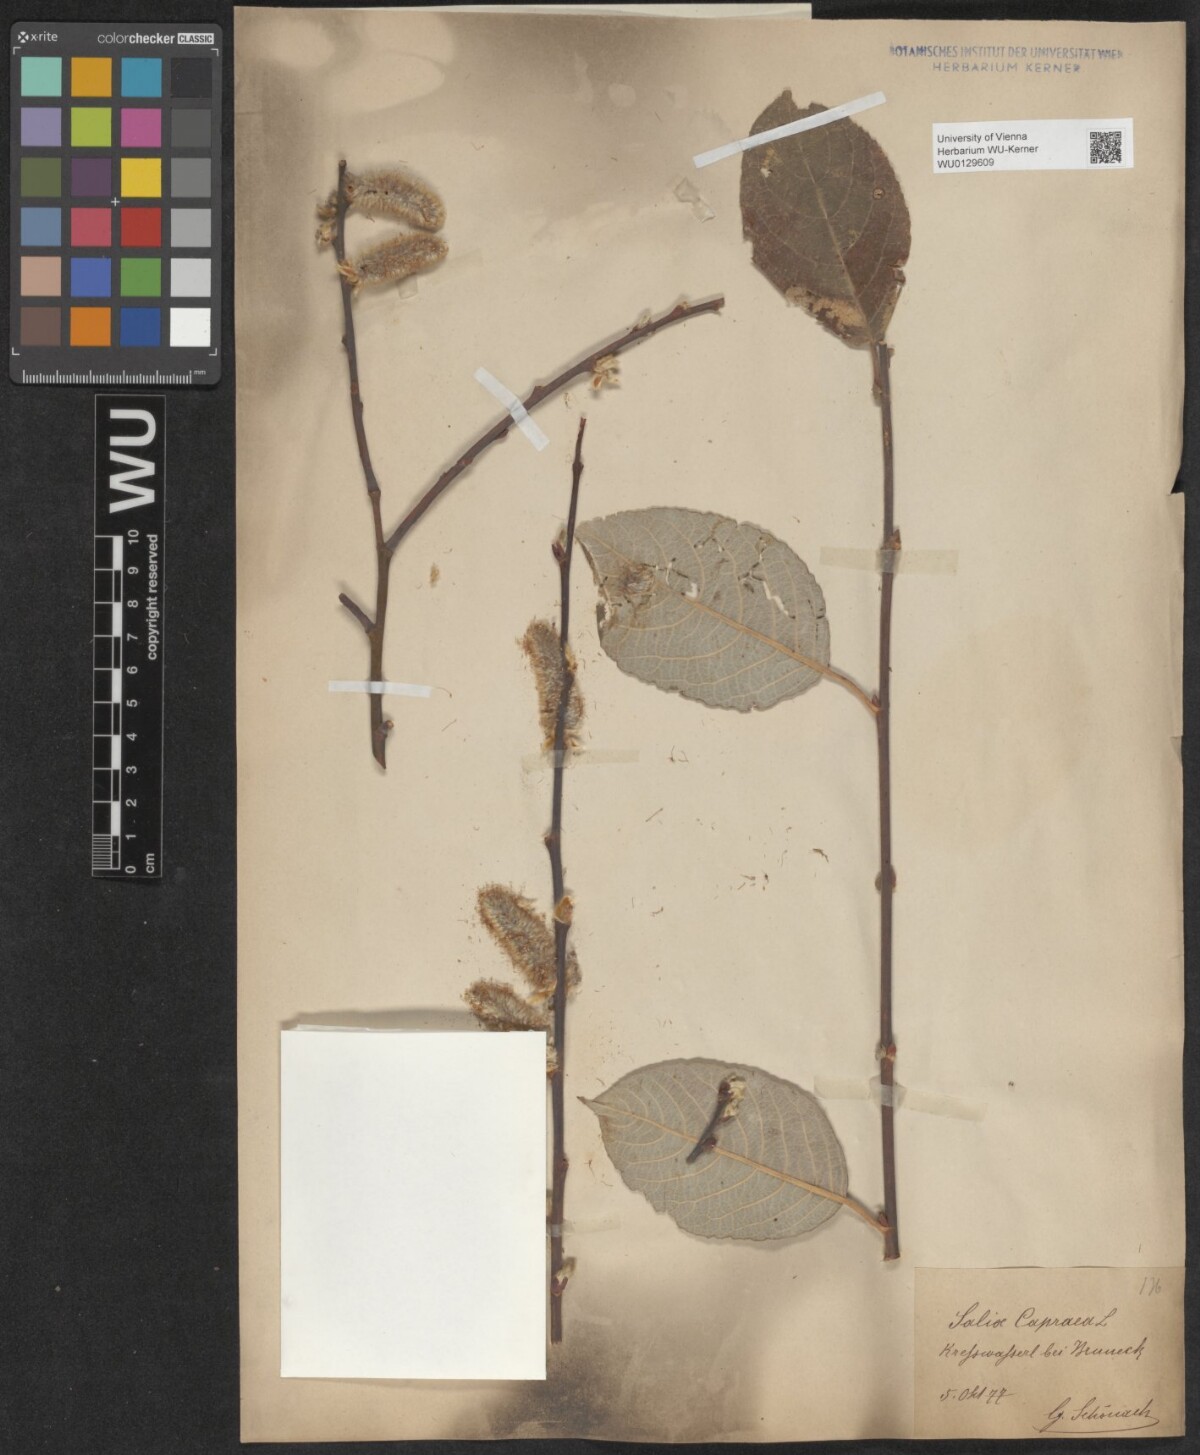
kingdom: Plantae
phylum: Tracheophyta
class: Magnoliopsida
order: Malpighiales
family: Salicaceae
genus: Salix
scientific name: Salix caprea
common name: Goat willow
